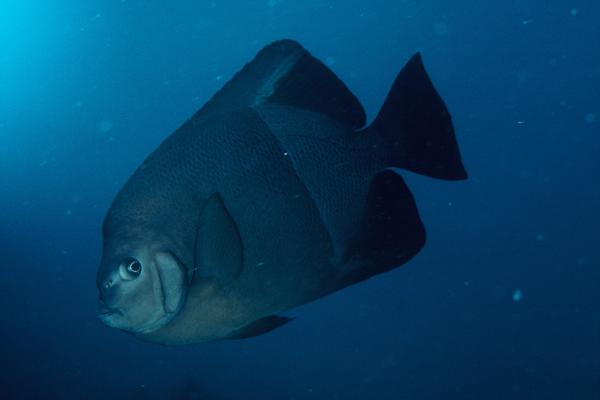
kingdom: Animalia
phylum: Chordata
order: Perciformes
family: Pomacanthidae
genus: Pomacanthus
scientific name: Pomacanthus rhomboides
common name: Old woman
